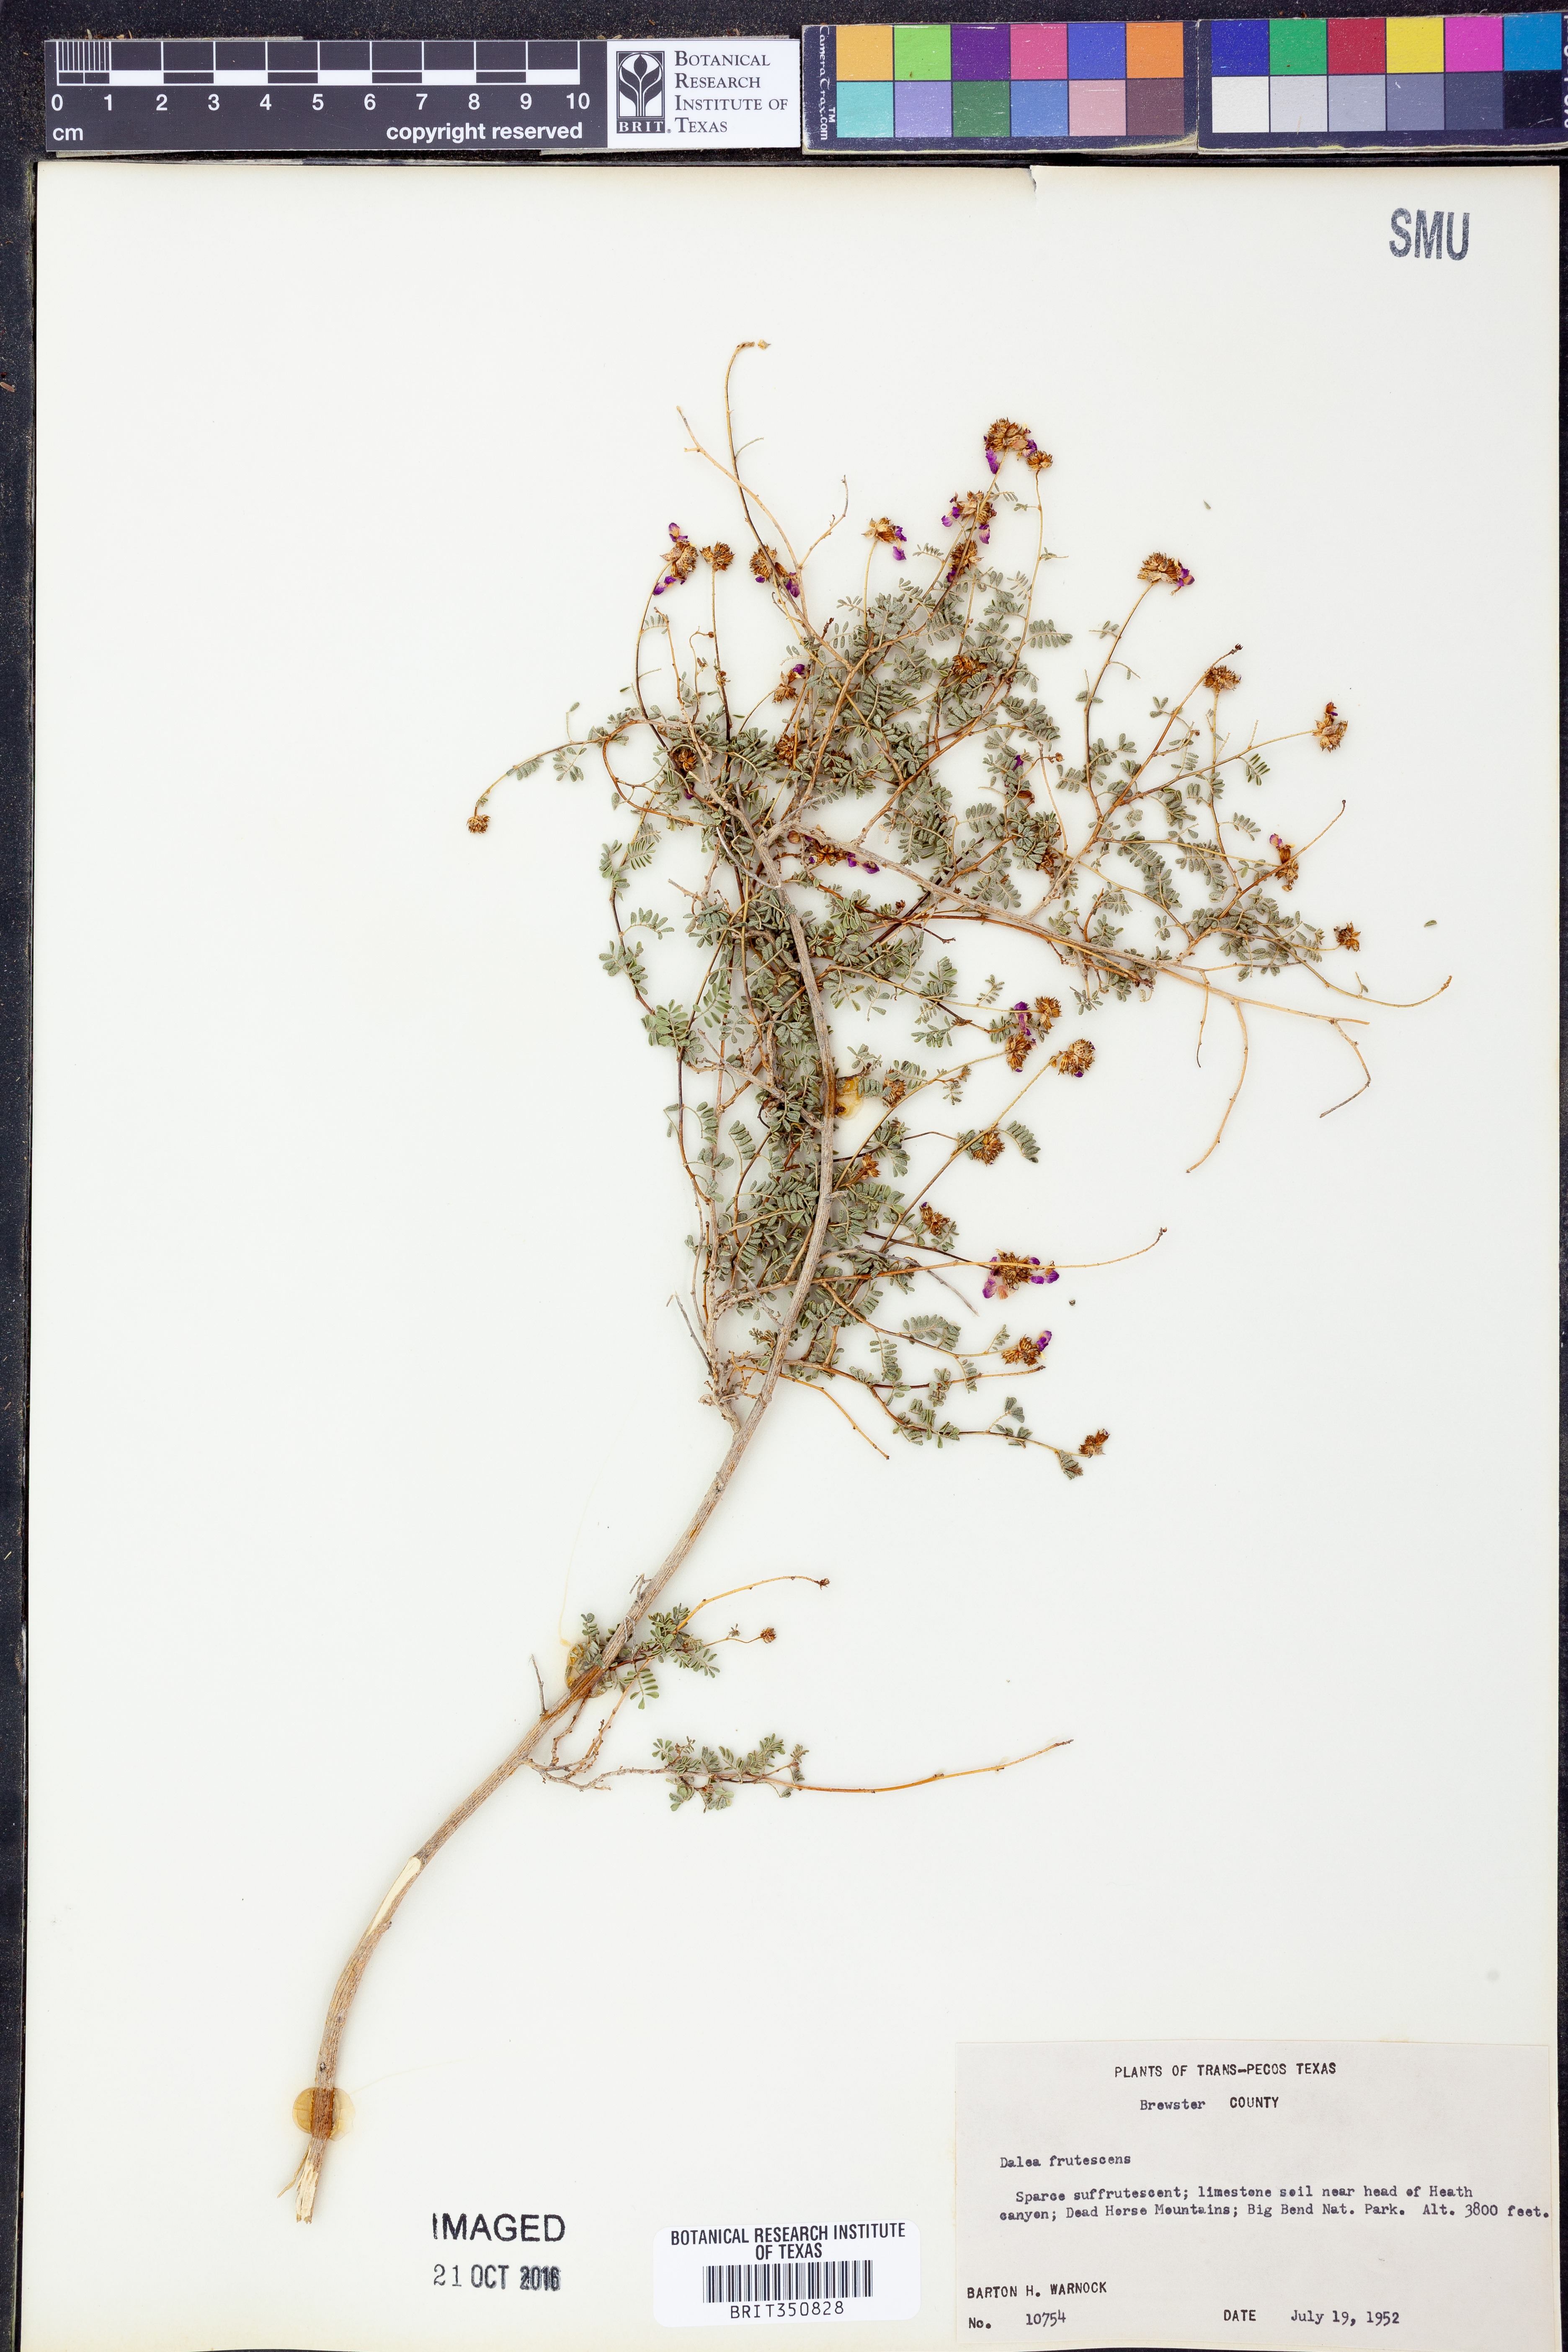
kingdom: Plantae
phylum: Tracheophyta
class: Magnoliopsida
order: Fabales
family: Fabaceae
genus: Dalea
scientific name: Dalea frutescens
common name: Black dalea
